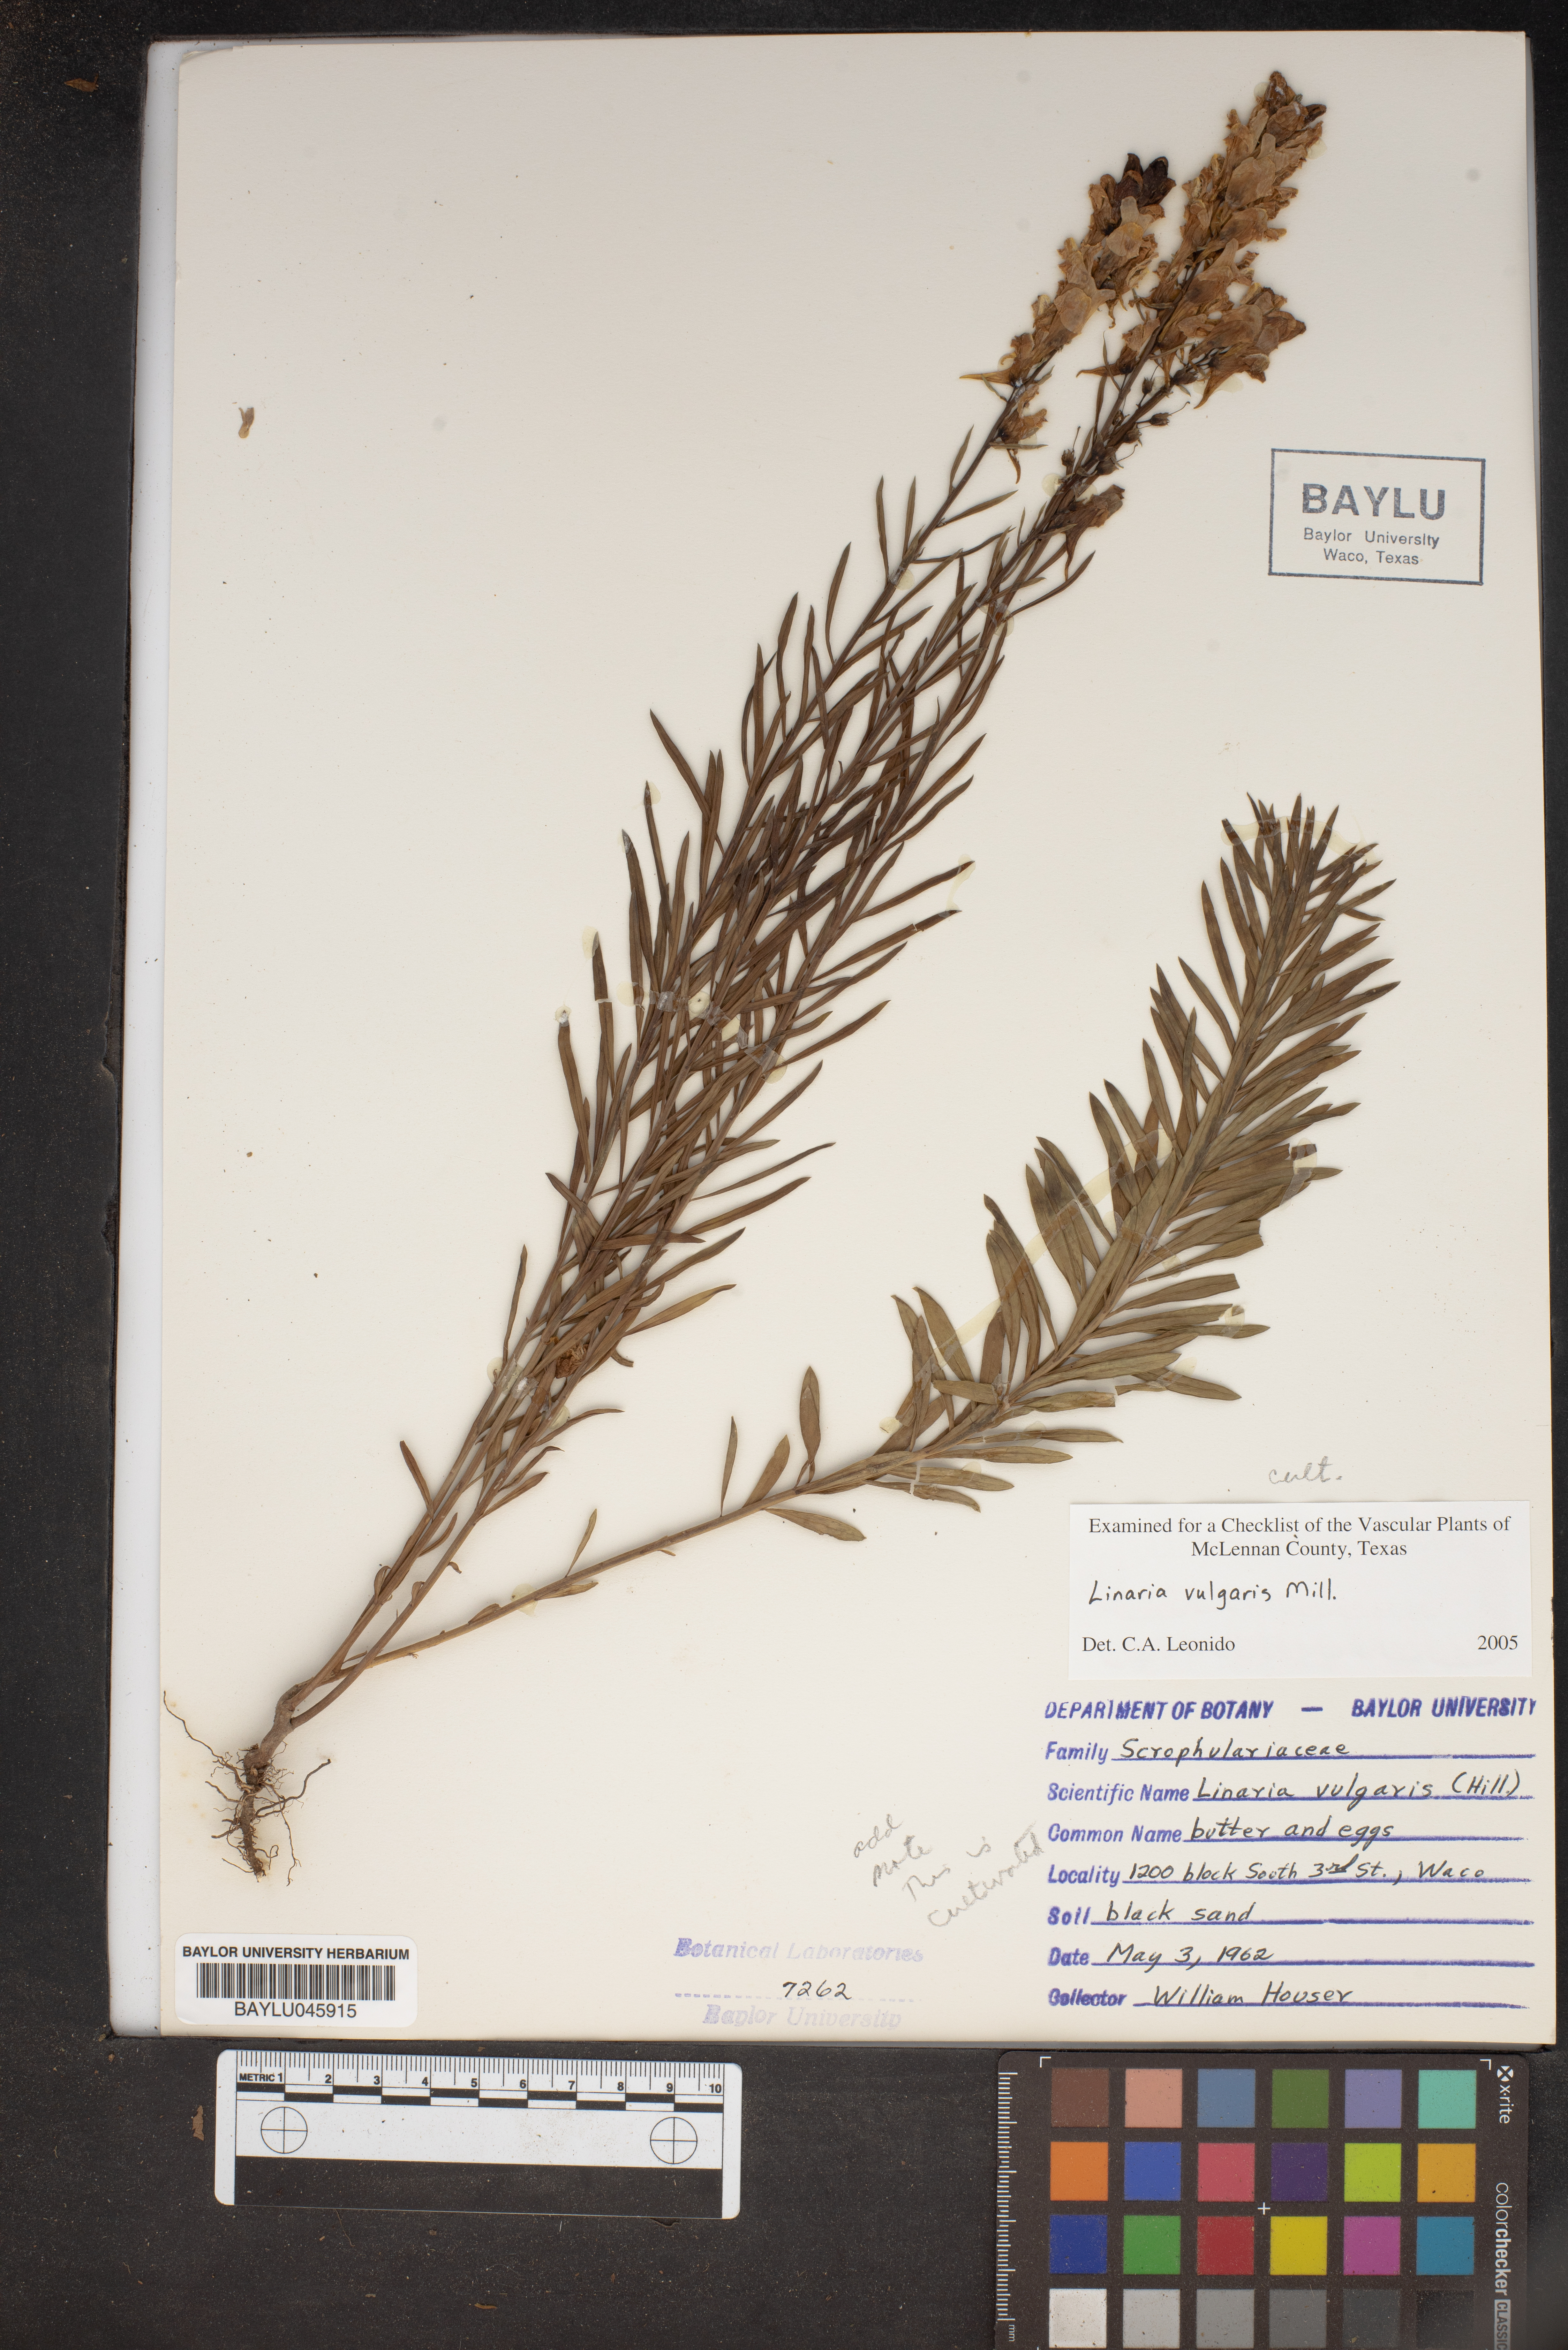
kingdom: Plantae
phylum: Tracheophyta
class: Magnoliopsida
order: Lamiales
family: Plantaginaceae
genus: Linaria
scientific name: Linaria vulgaris
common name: Butter and eggs
